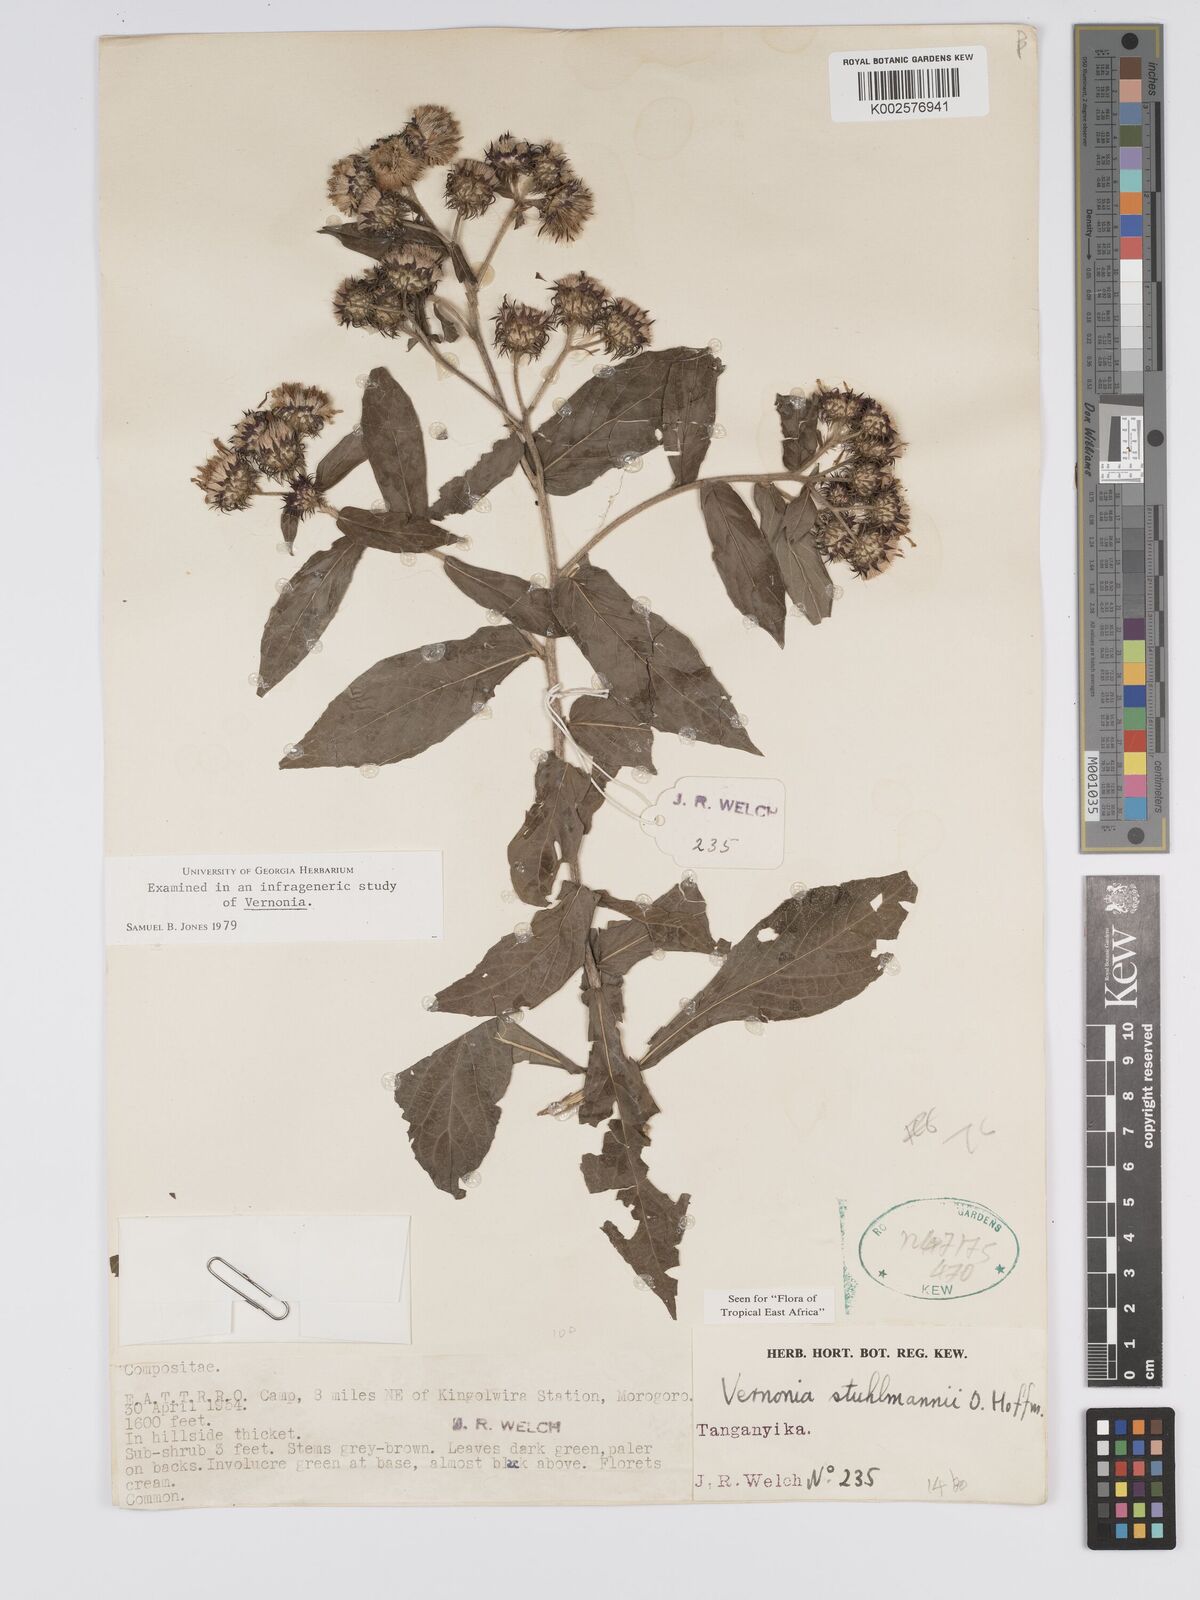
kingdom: Plantae
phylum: Tracheophyta
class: Magnoliopsida
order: Asterales
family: Asteraceae
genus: Vernonia
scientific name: Vernonia stuhlmannii
